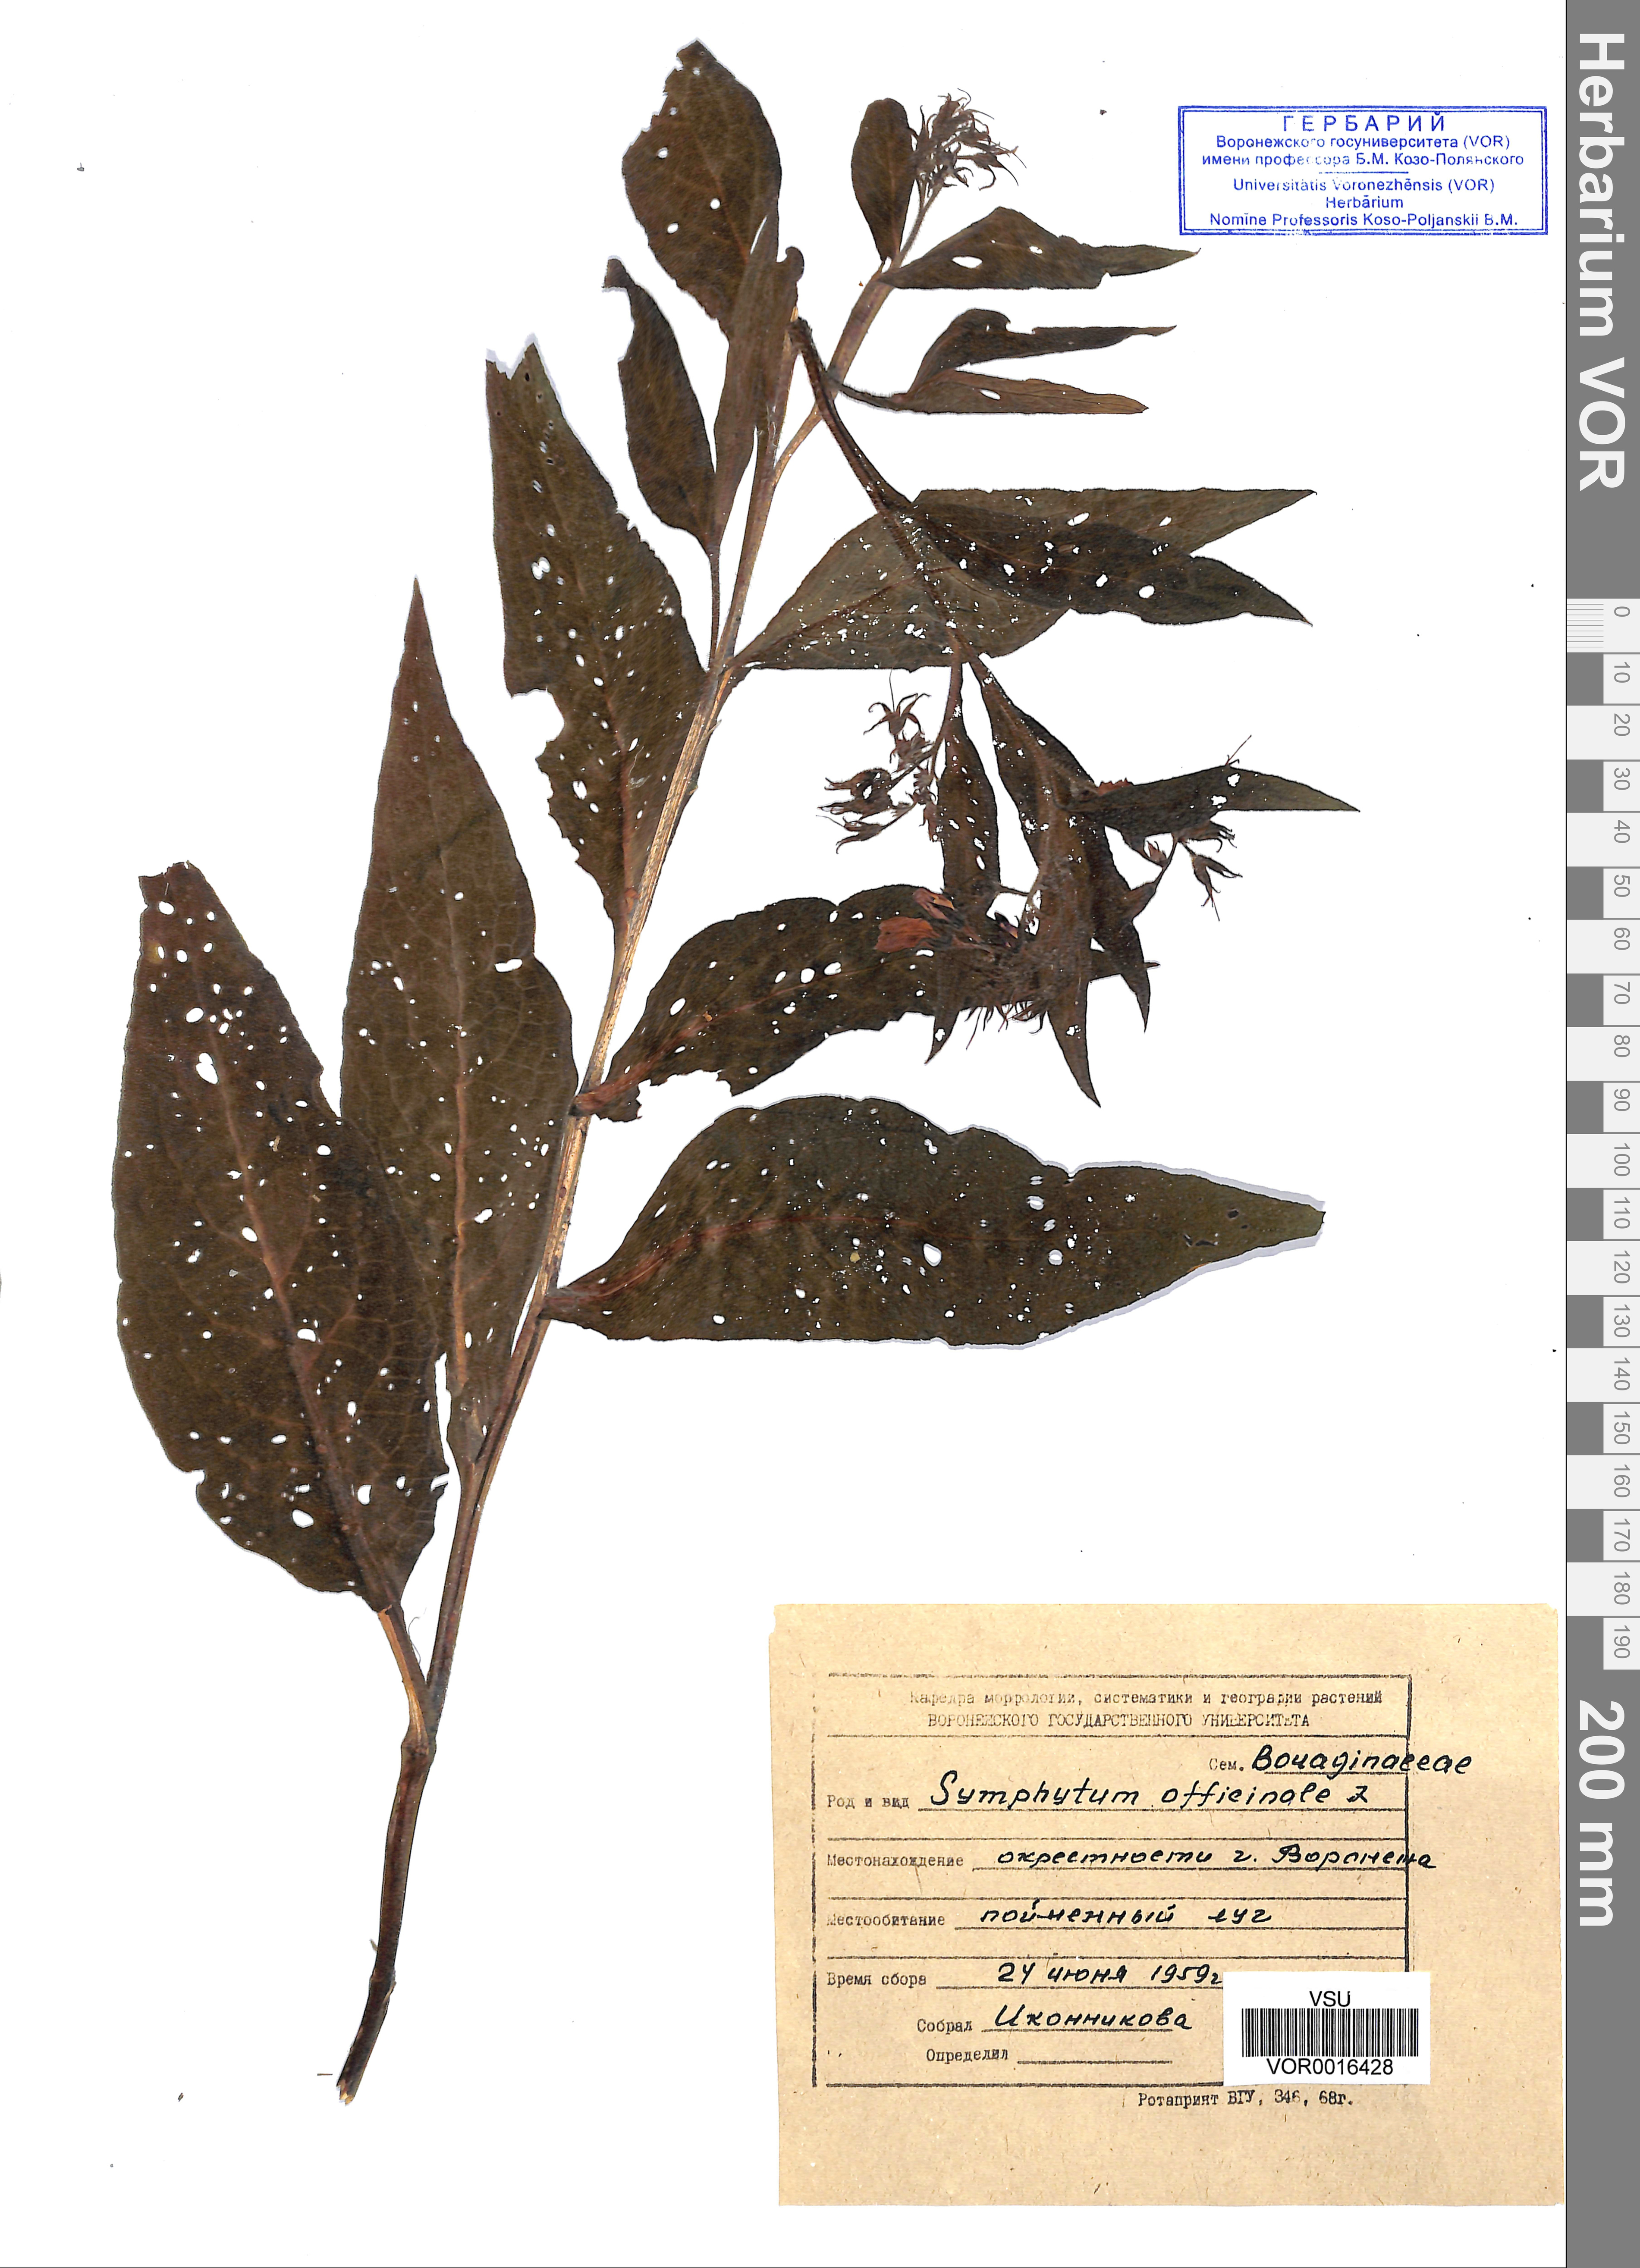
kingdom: Plantae
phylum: Tracheophyta
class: Magnoliopsida
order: Boraginales
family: Boraginaceae
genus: Symphytum
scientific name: Symphytum officinale
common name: Common comfrey
